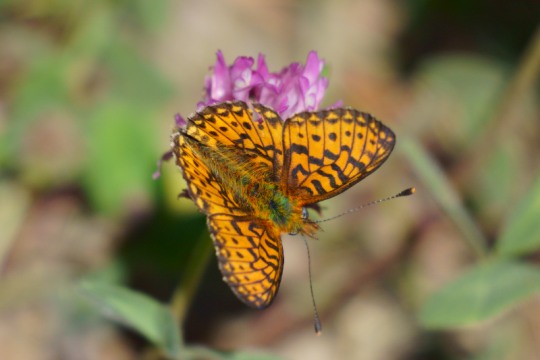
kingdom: Animalia
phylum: Arthropoda
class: Insecta
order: Lepidoptera
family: Nymphalidae
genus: Boloria
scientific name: Boloria selene
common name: Silver-bordered Fritillary
